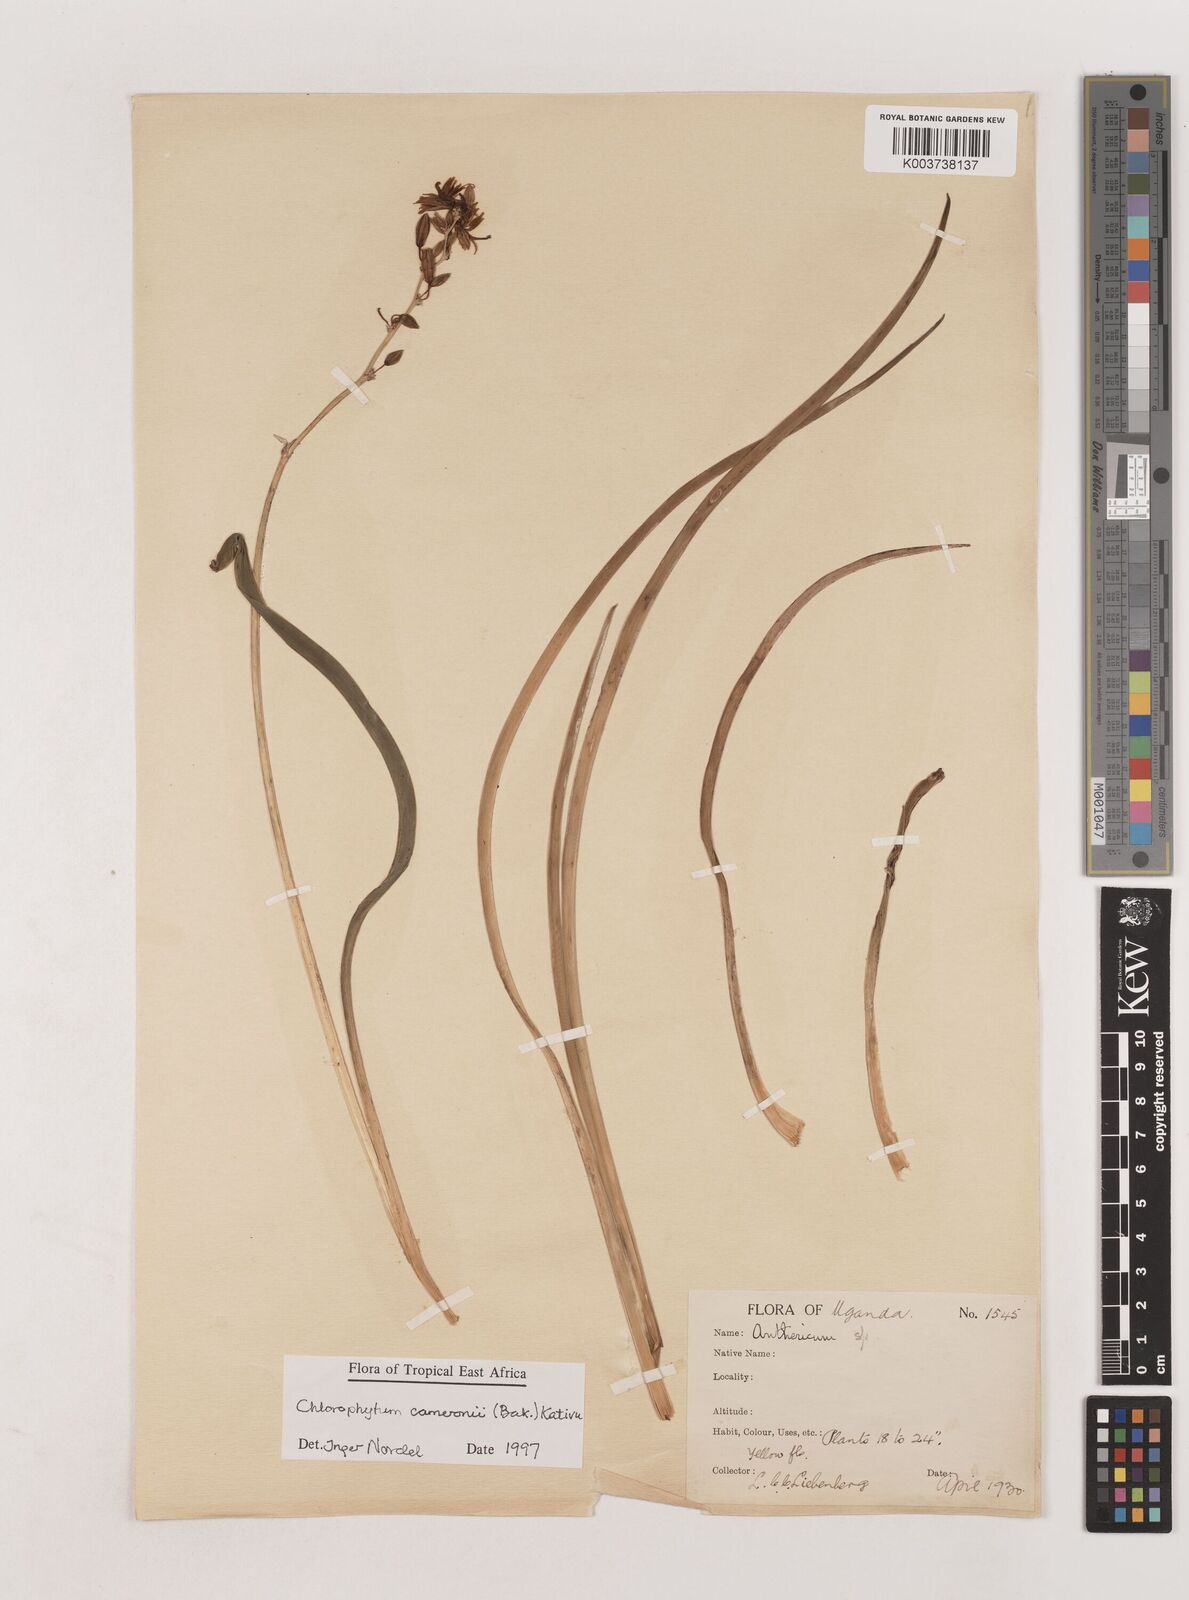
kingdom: Plantae
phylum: Tracheophyta
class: Liliopsida
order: Asparagales
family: Asparagaceae
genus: Chlorophytum
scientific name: Chlorophytum cameronii
